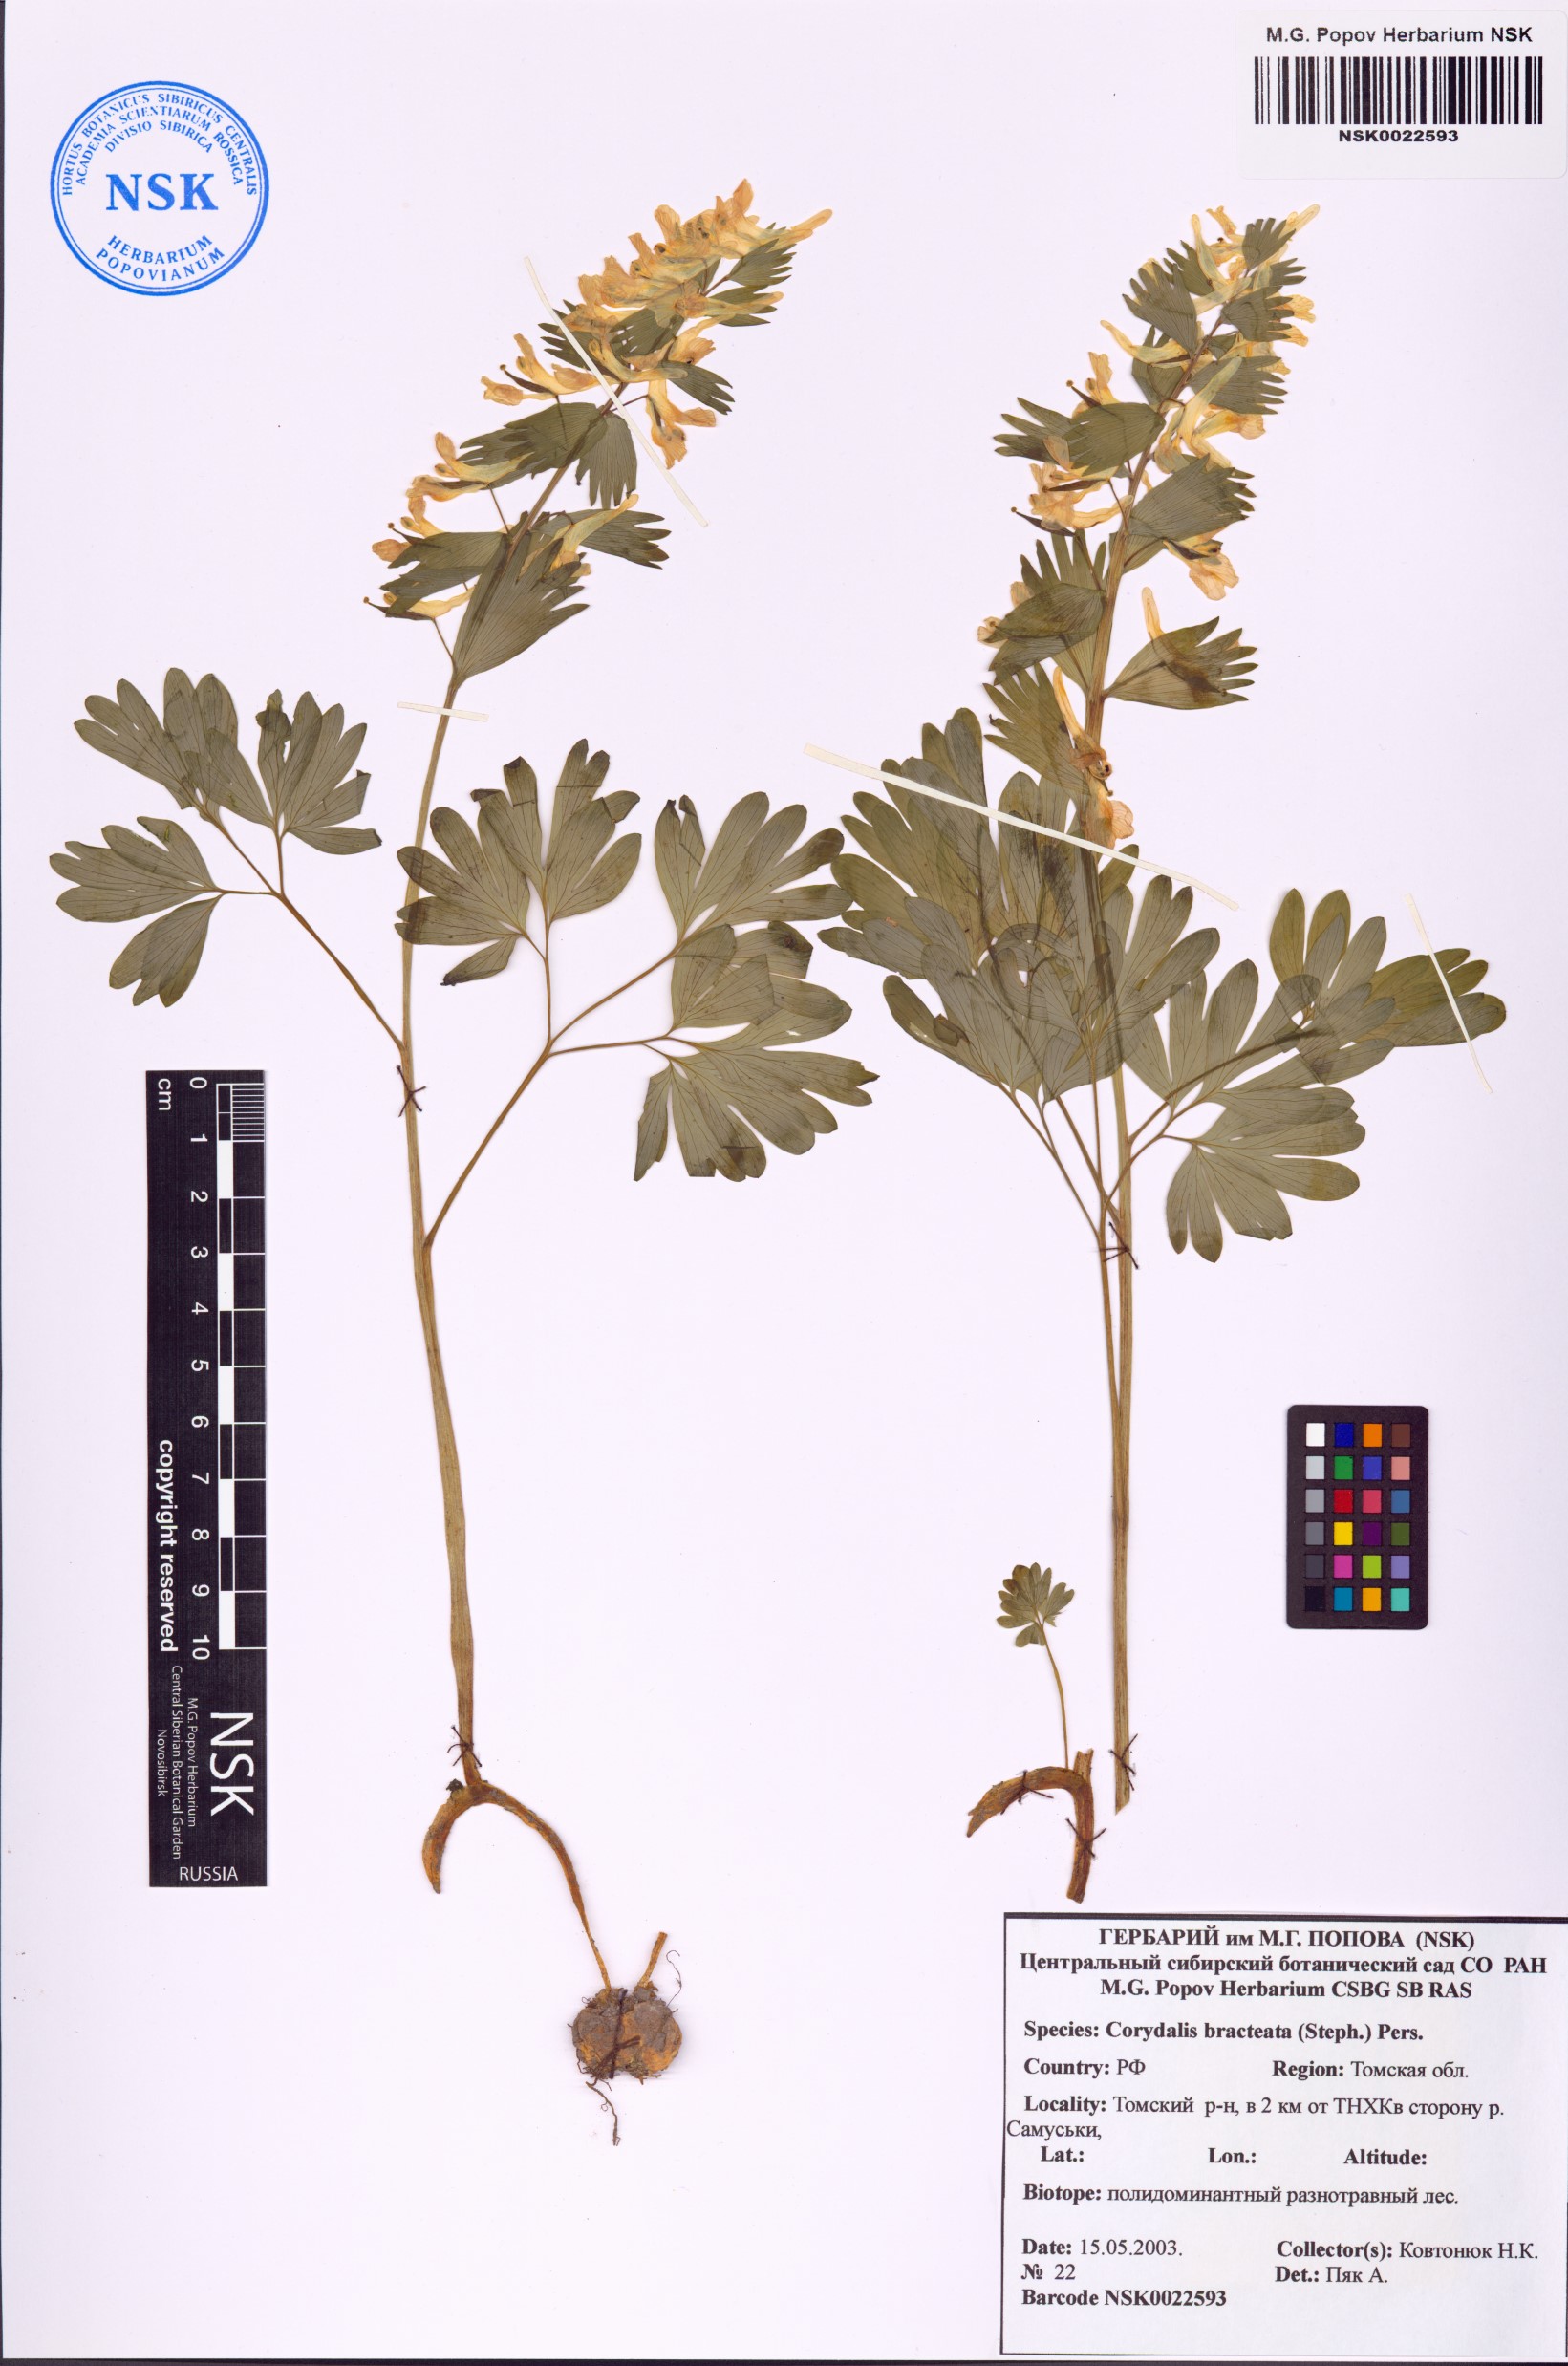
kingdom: Plantae
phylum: Tracheophyta
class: Magnoliopsida
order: Ranunculales
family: Papaveraceae
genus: Corydalis
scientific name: Corydalis bracteata
